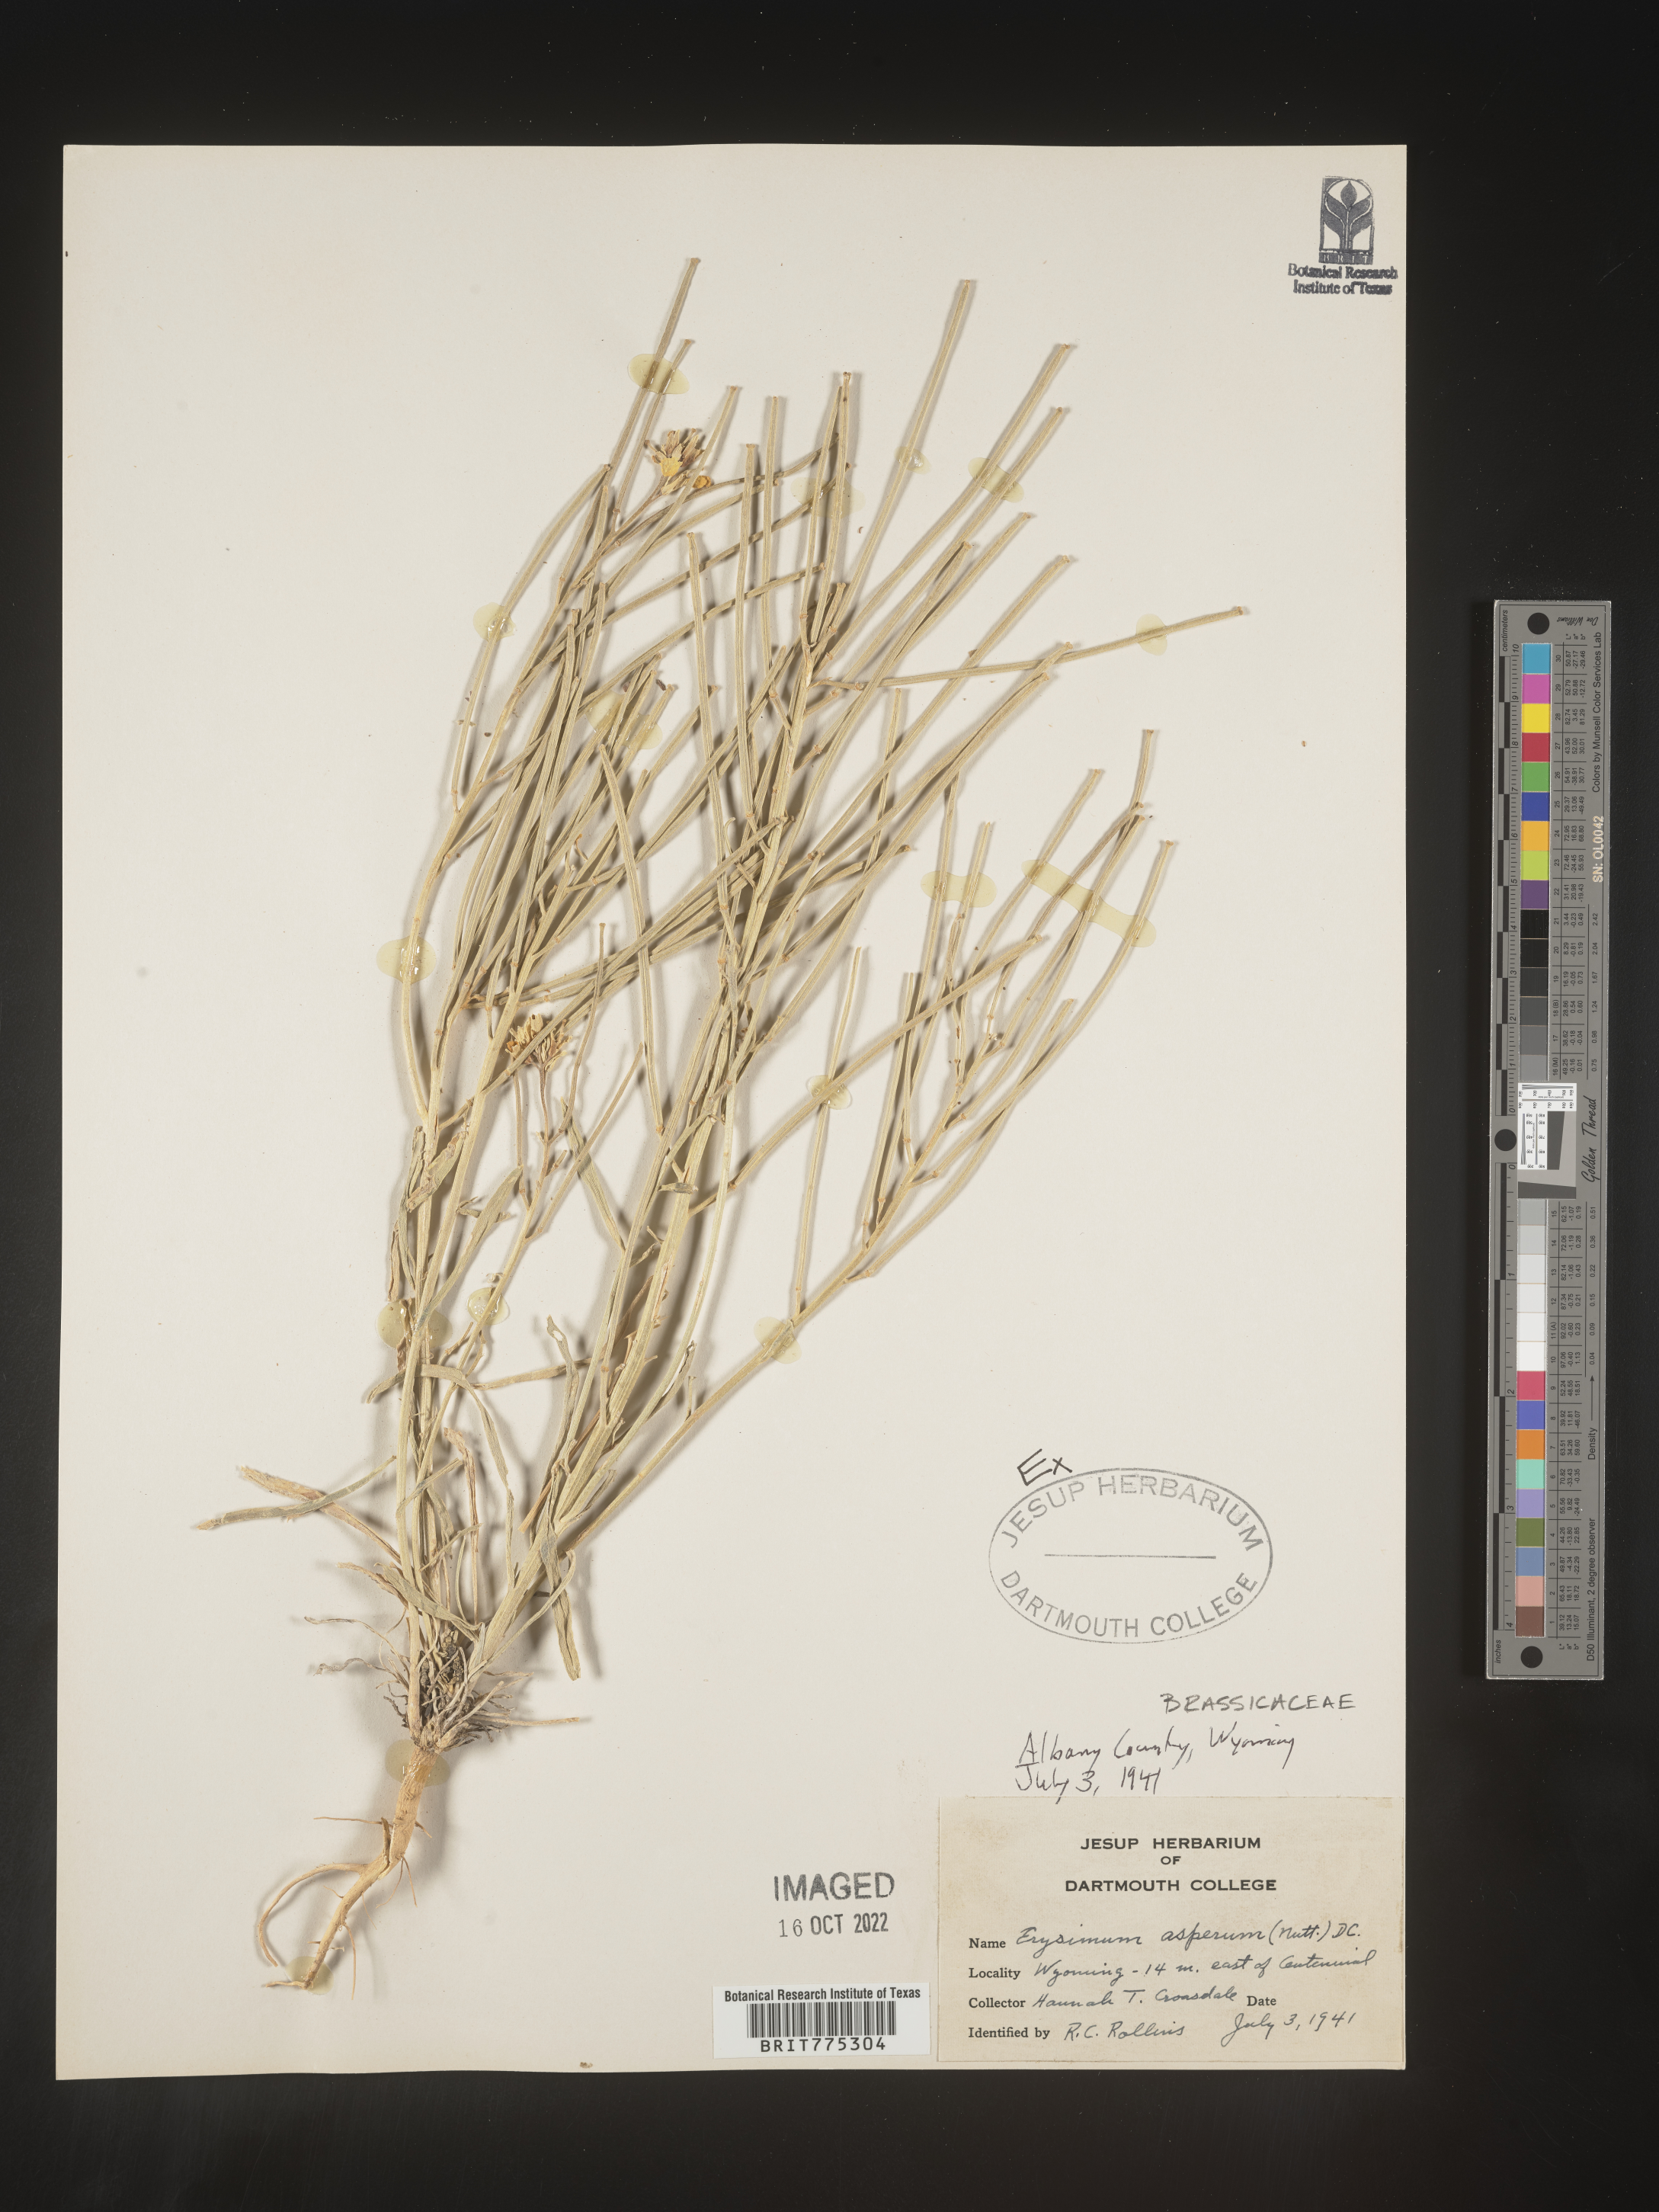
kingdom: Plantae
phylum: Tracheophyta
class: Magnoliopsida
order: Brassicales
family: Brassicaceae
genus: Erysimum
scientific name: Erysimum asperum
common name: Western wallflower
